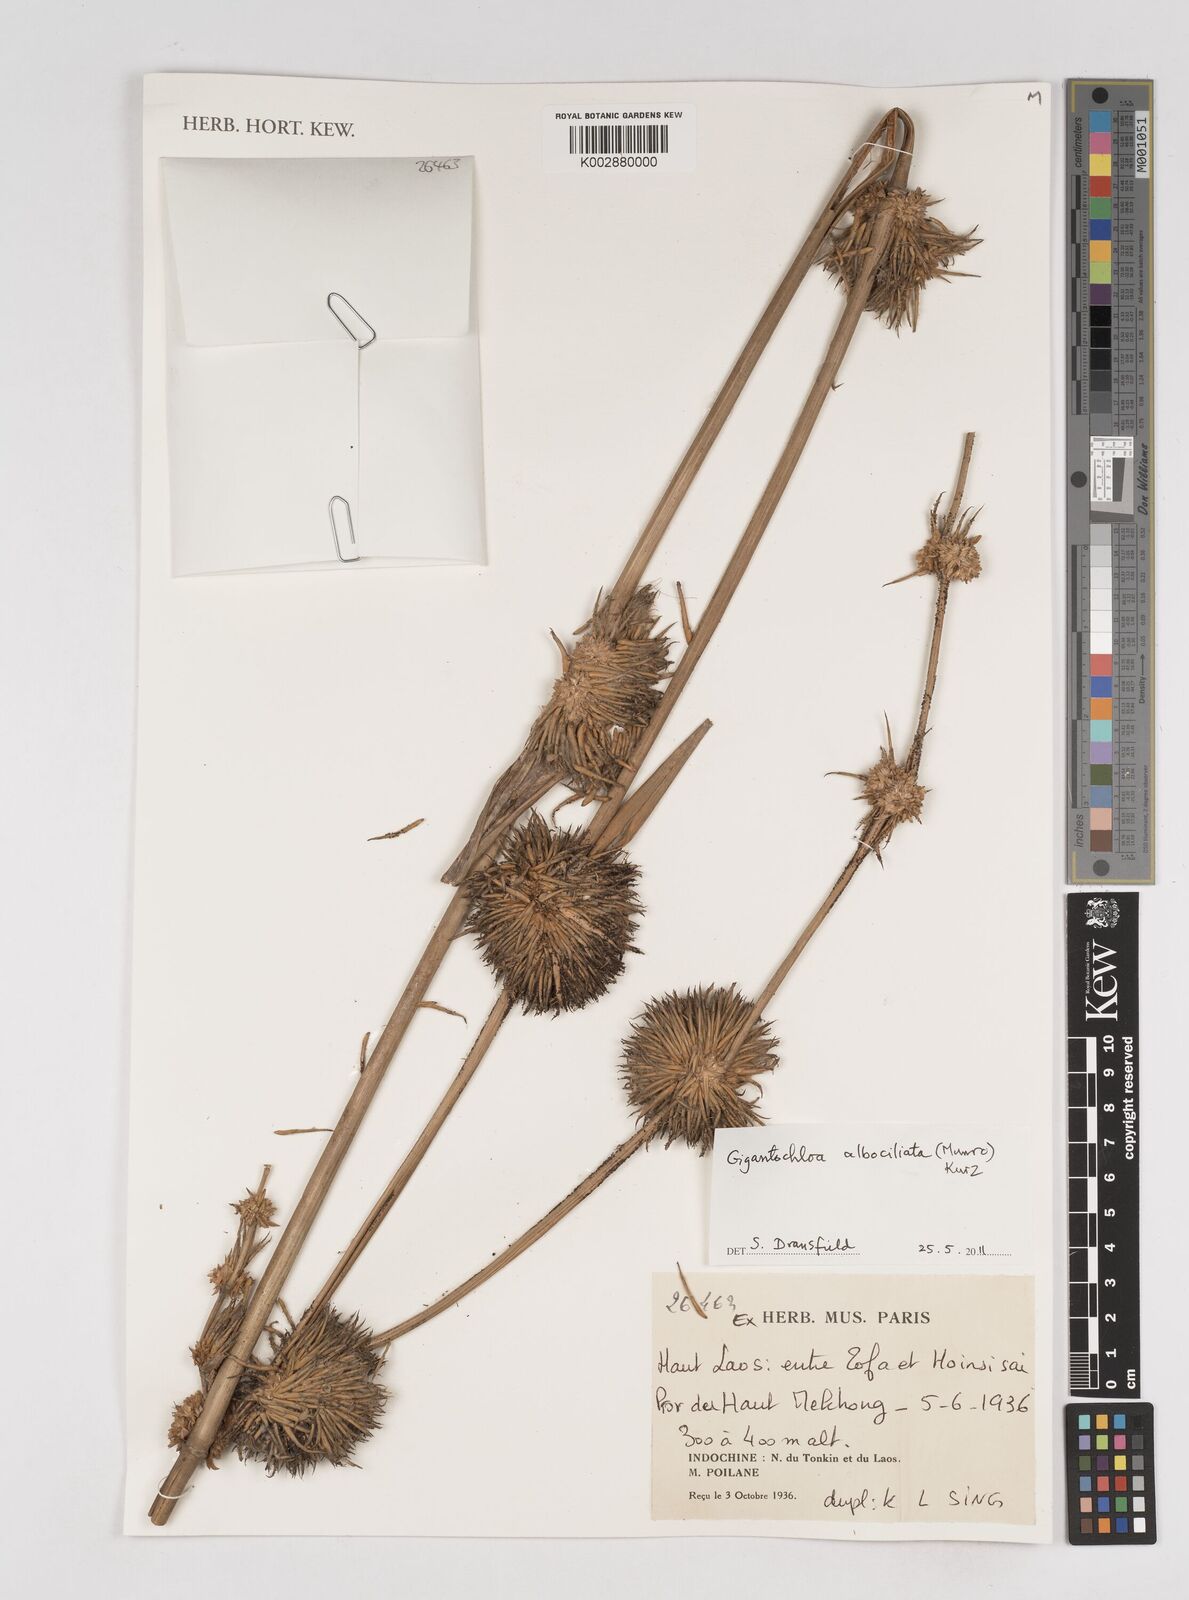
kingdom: Plantae
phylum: Tracheophyta
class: Liliopsida
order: Poales
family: Poaceae
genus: Gigantochloa
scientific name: Gigantochloa albociliata
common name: White-fringe gigantochloa
